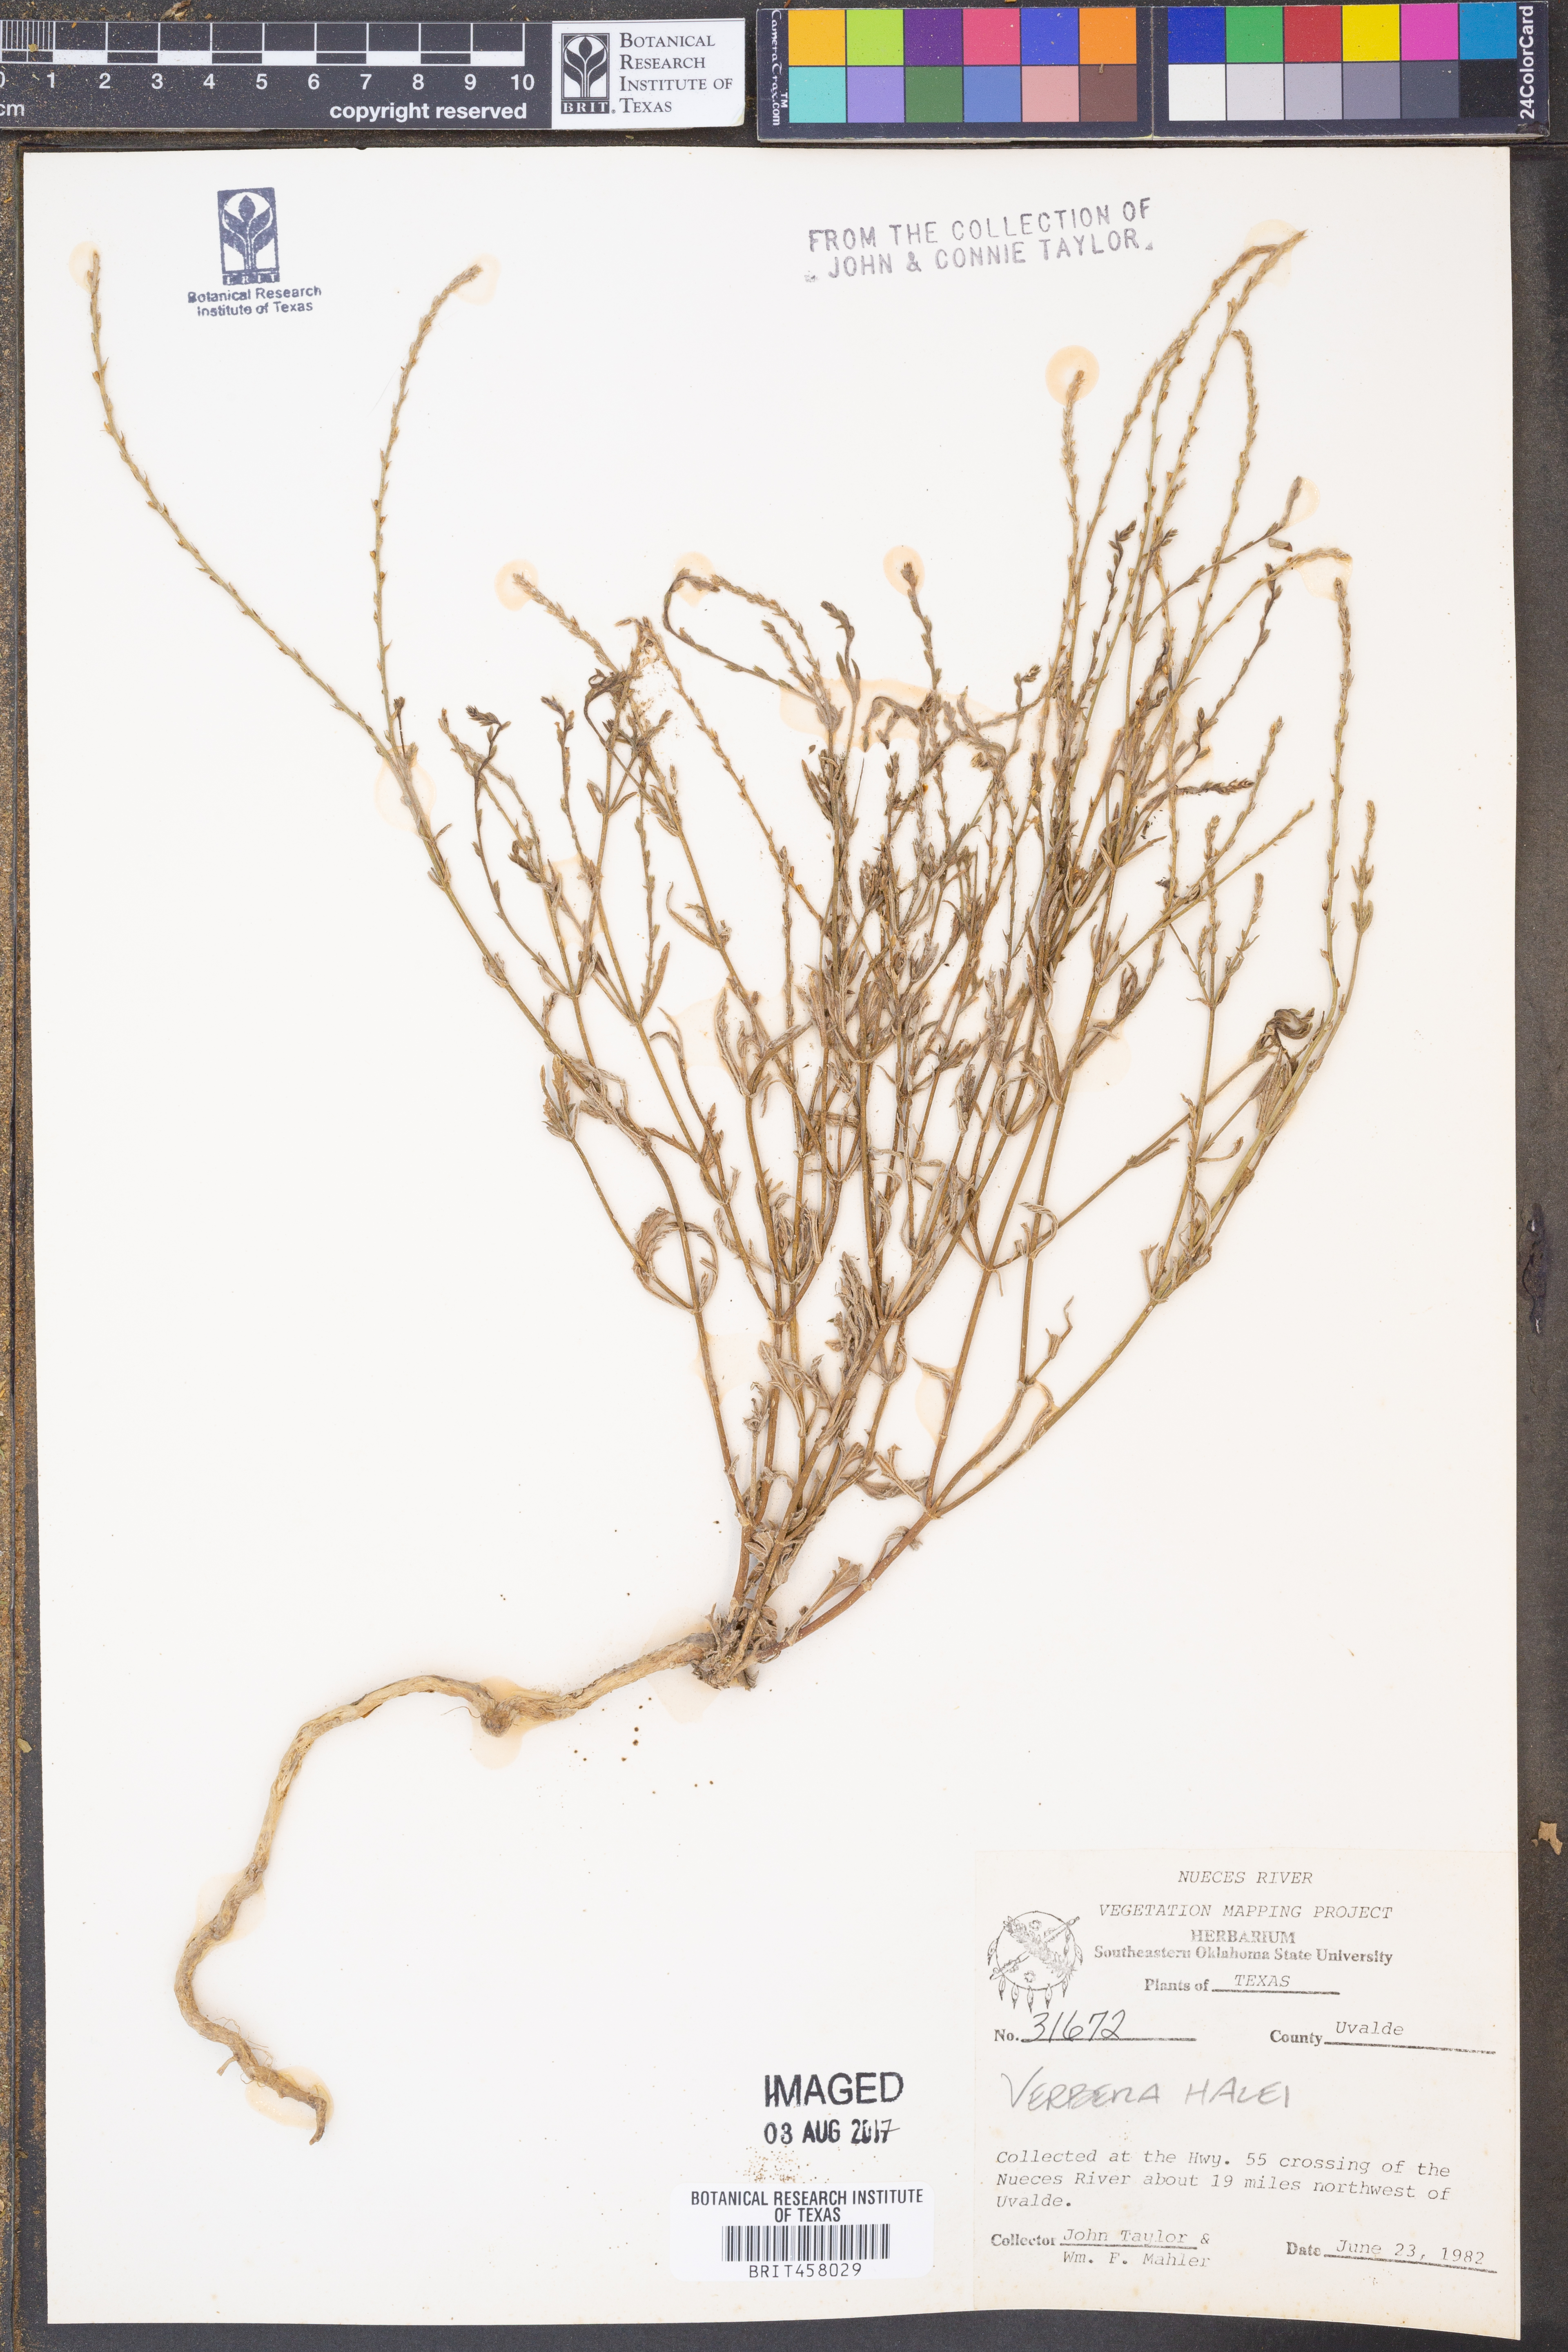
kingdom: Plantae
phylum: Tracheophyta
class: Magnoliopsida
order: Lamiales
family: Verbenaceae
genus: Verbena
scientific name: Verbena halei
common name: Texas vervain
